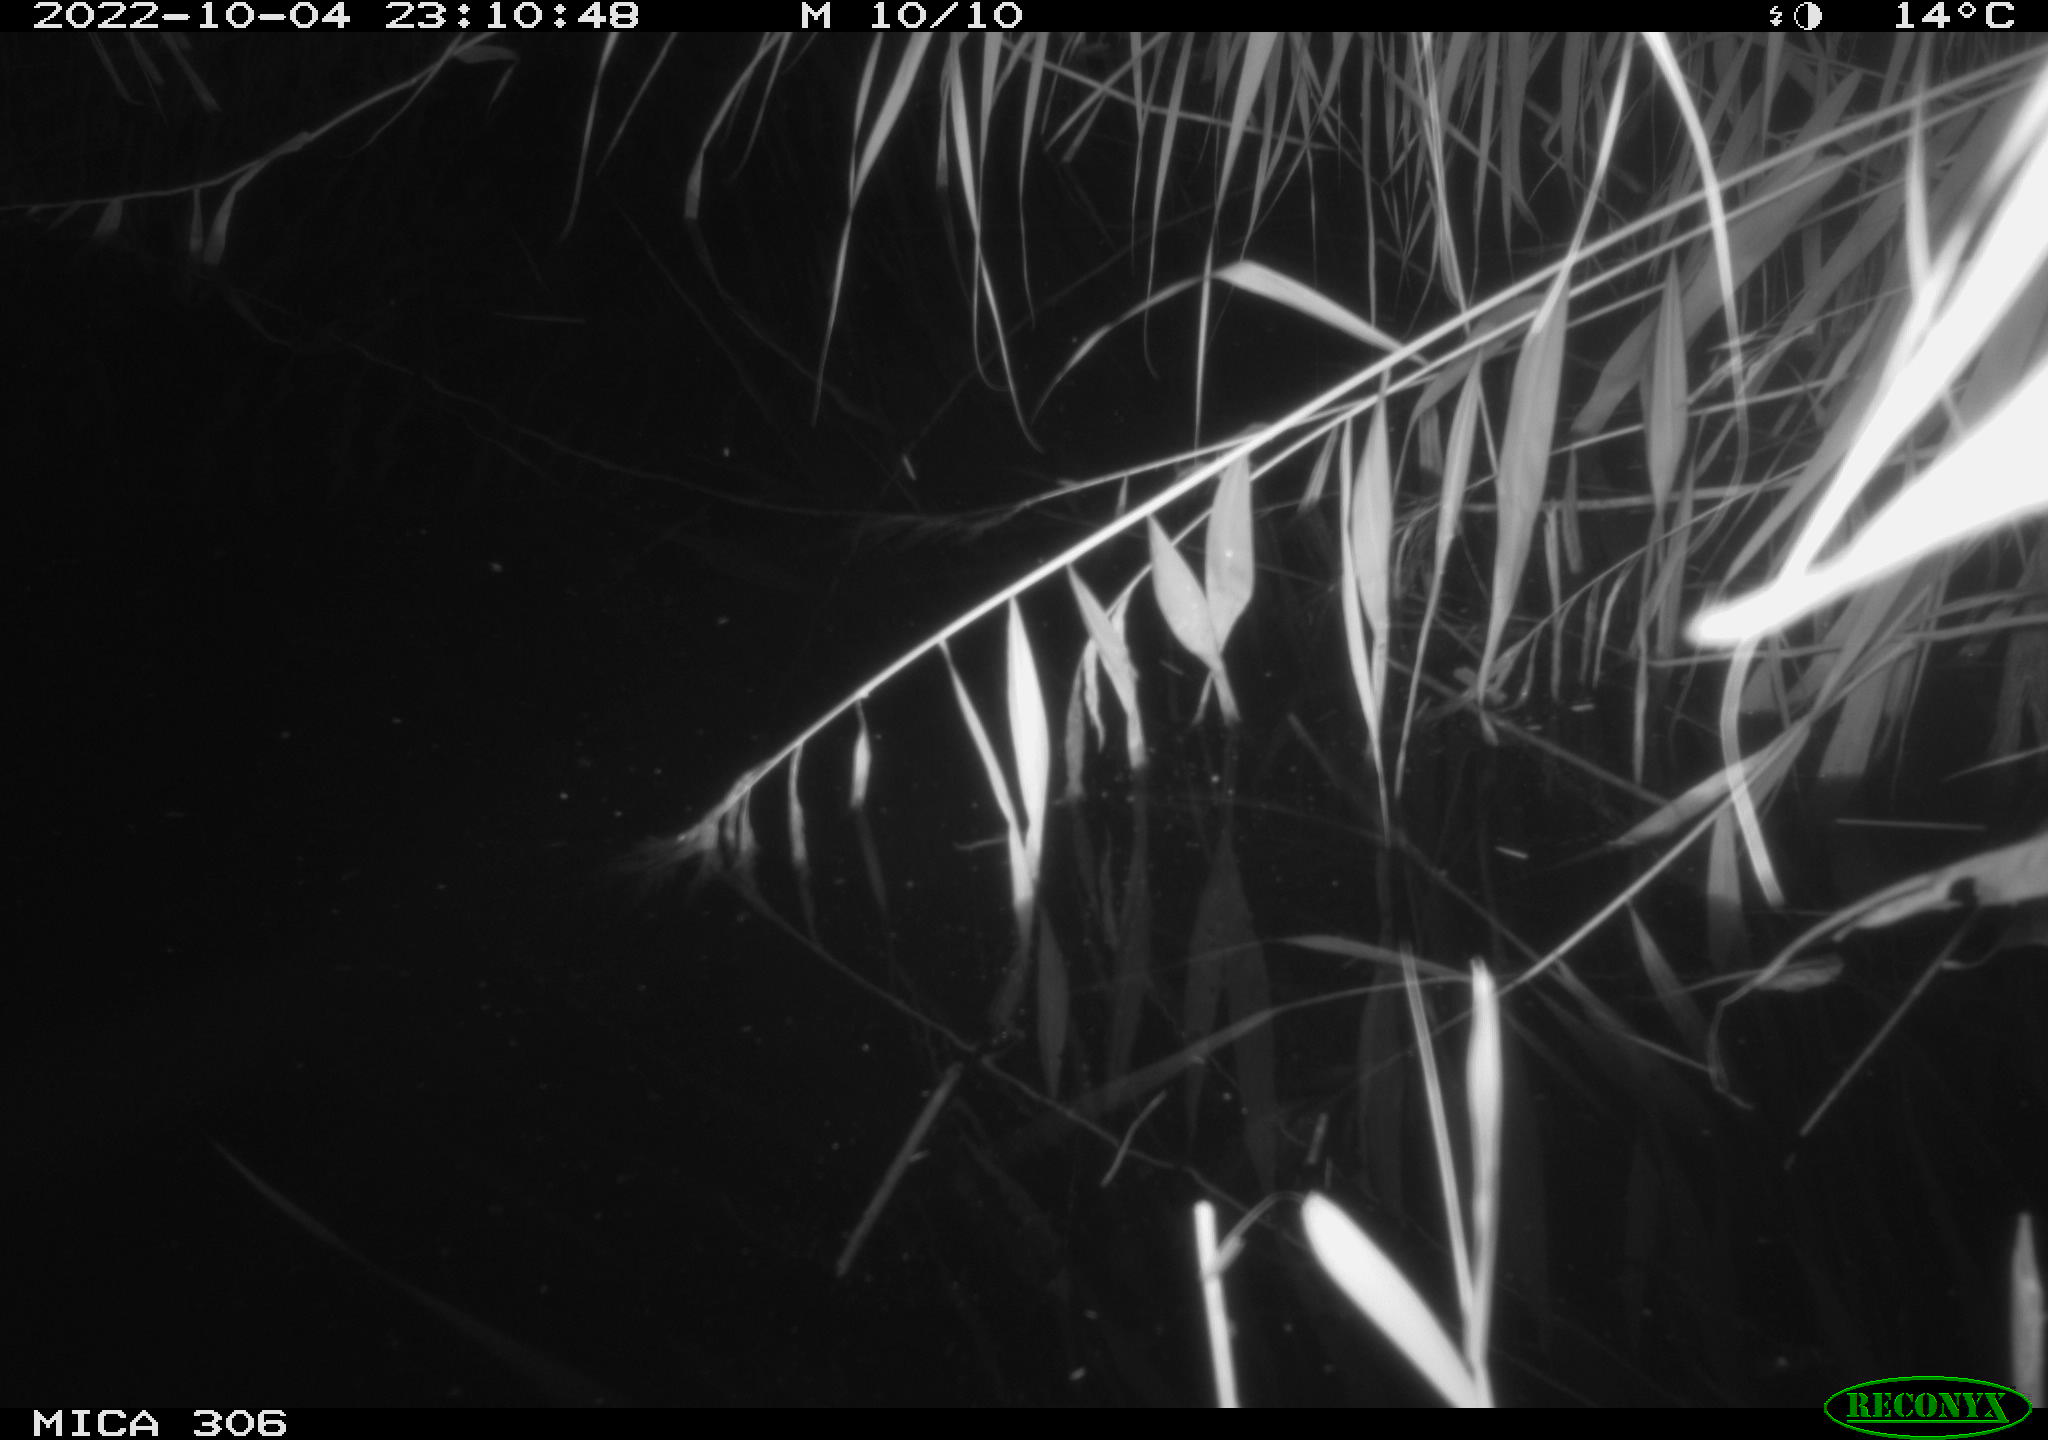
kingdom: Animalia
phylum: Chordata
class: Mammalia
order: Rodentia
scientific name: Rodentia
